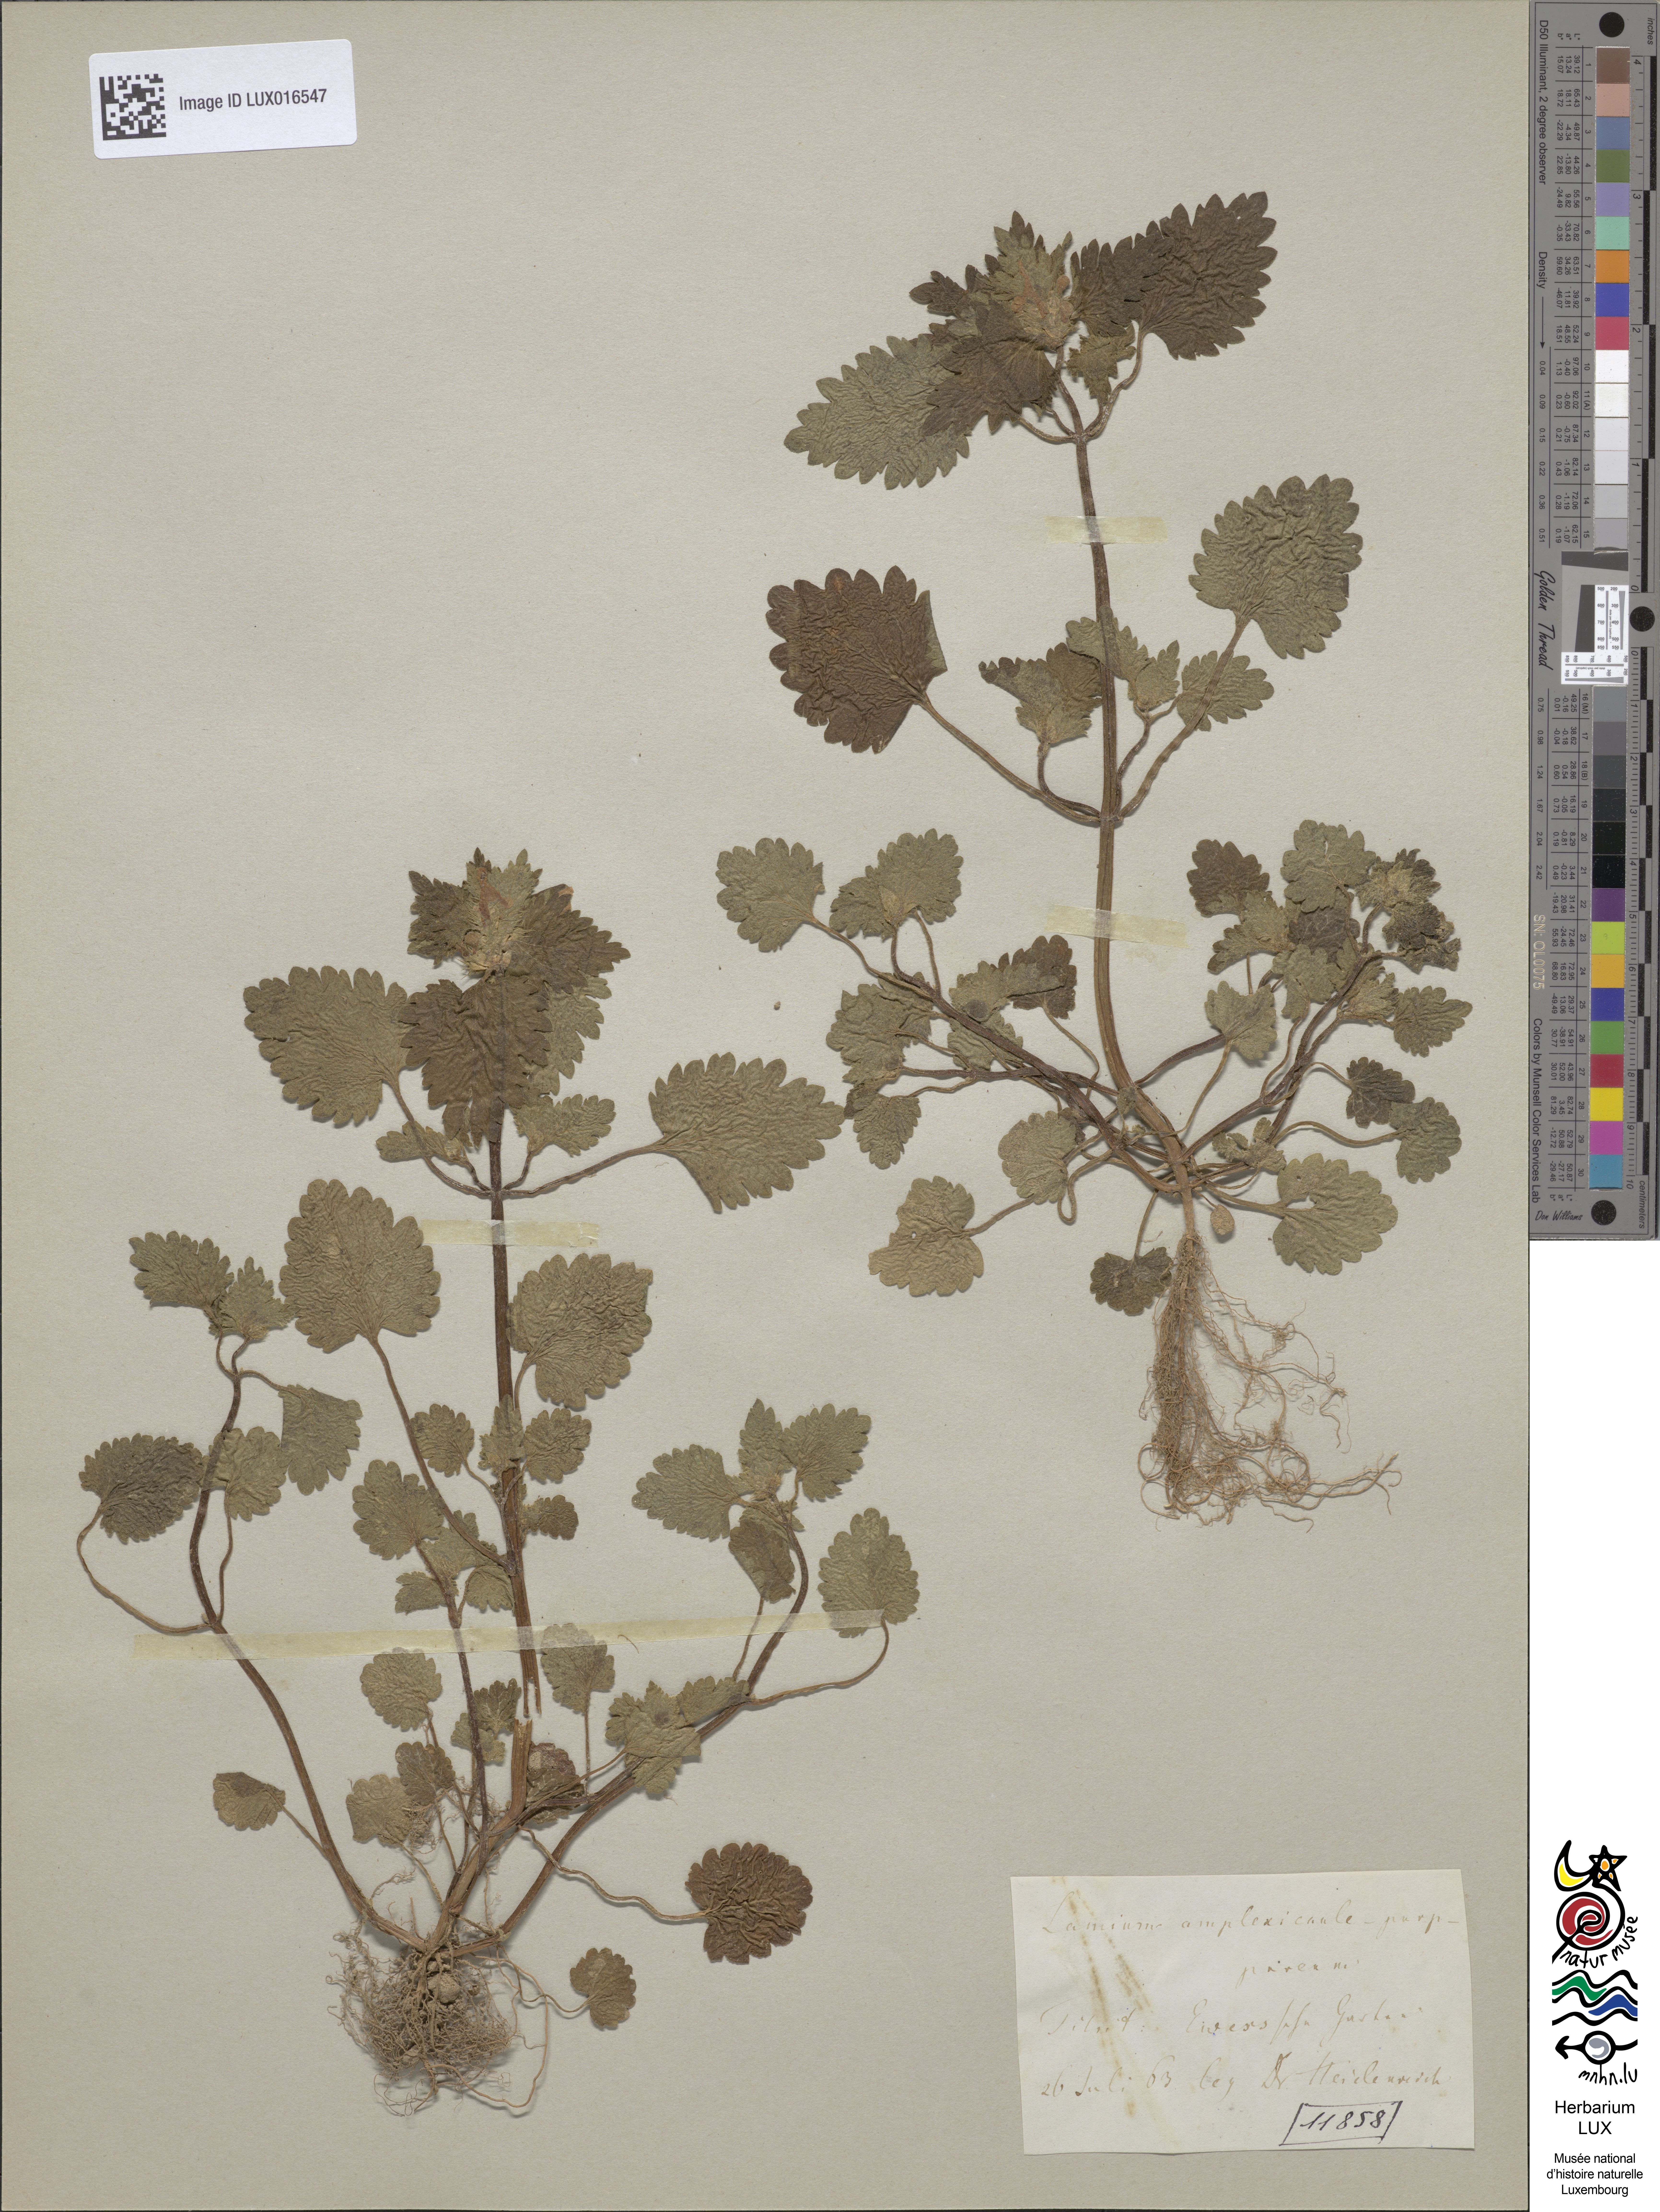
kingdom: Plantae
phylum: Tracheophyta
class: Magnoliopsida
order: Lamiales
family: Lamiaceae
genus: Lamium
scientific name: Lamium purpureum
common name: Red dead-nettle
